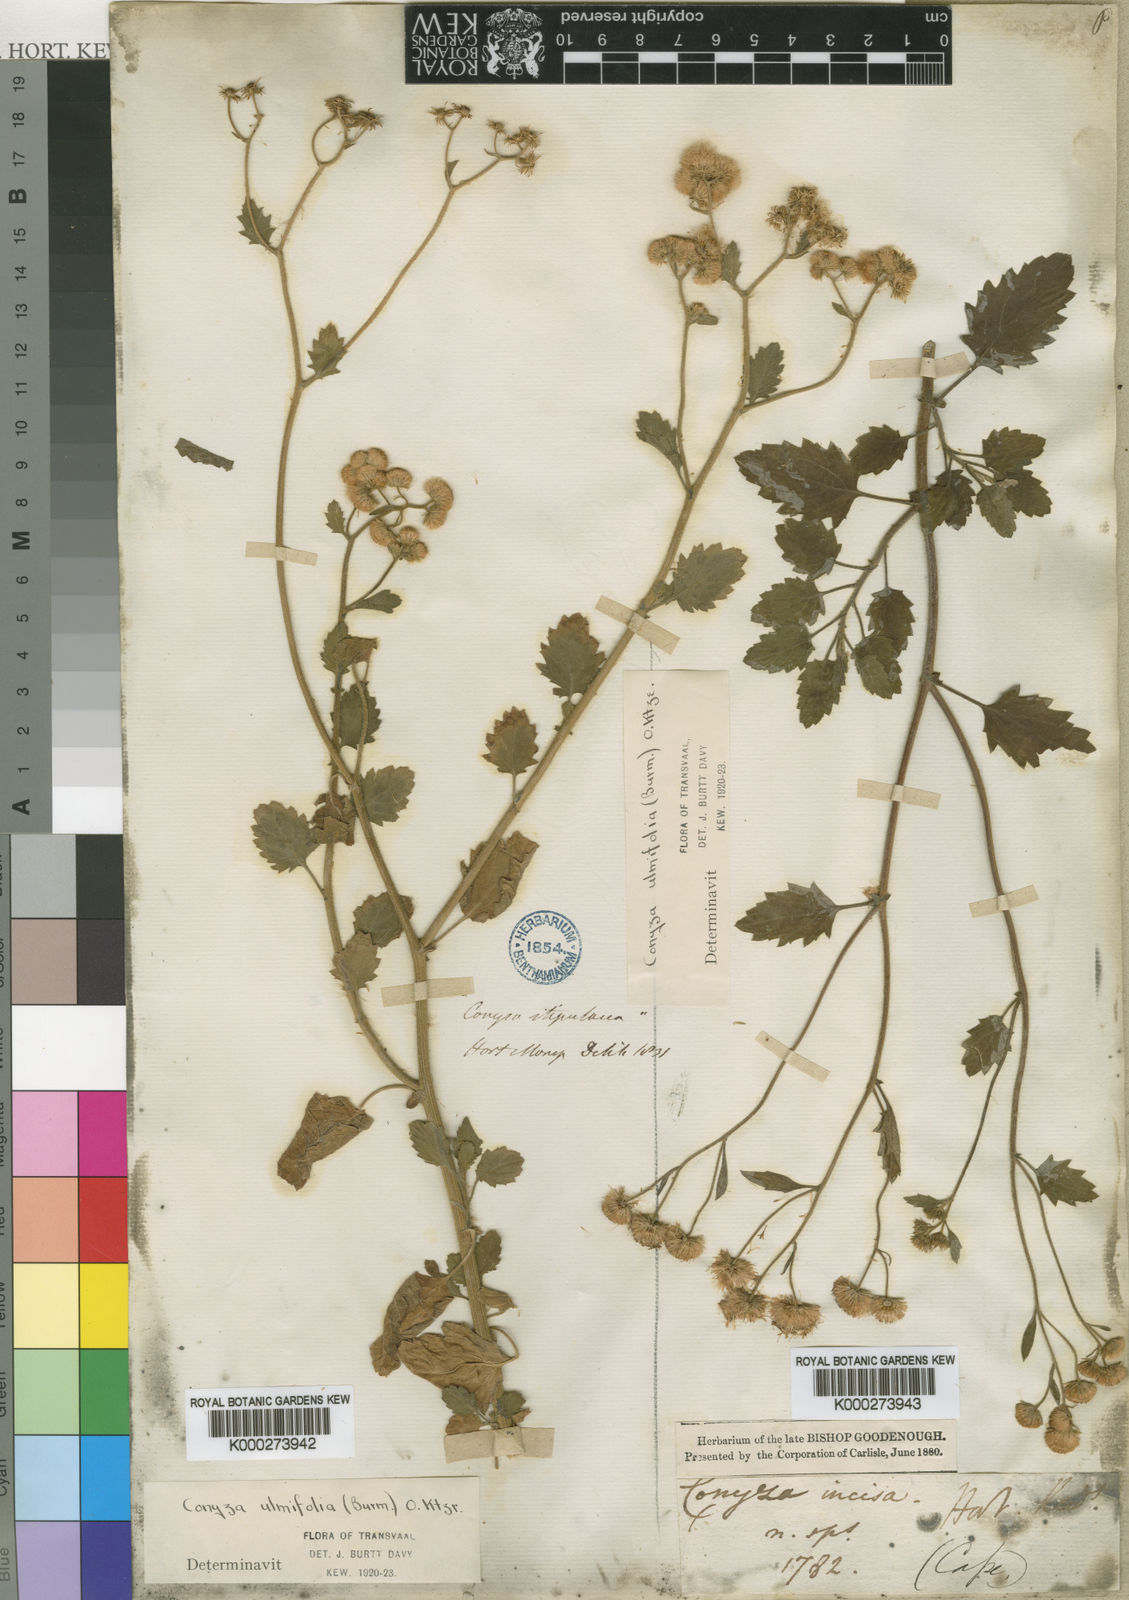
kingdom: Plantae
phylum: Tracheophyta
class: Magnoliopsida
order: Asterales
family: Asteraceae
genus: Eschenbachia
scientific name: Eschenbachia ulmifolia
